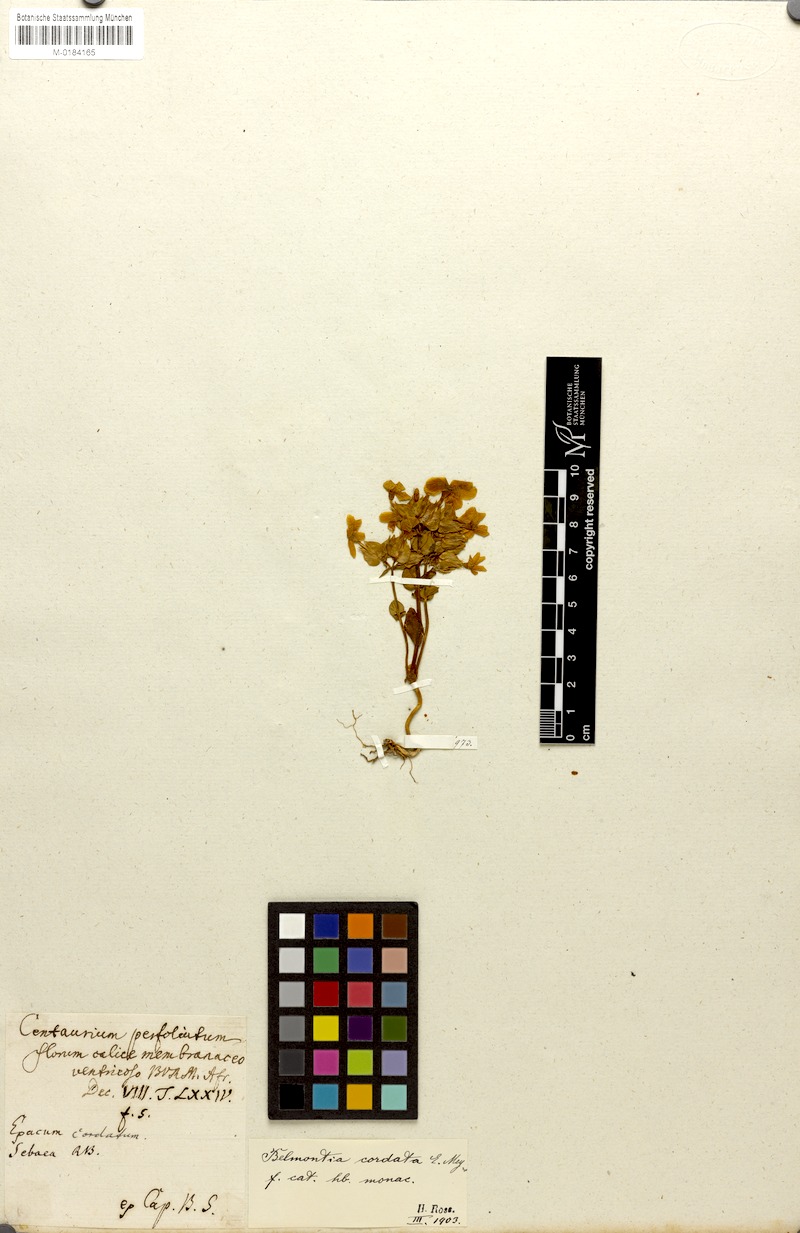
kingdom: Plantae
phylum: Tracheophyta
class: Magnoliopsida
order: Gentianales
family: Gentianaceae
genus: Sebaea
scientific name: Sebaea exacoides
